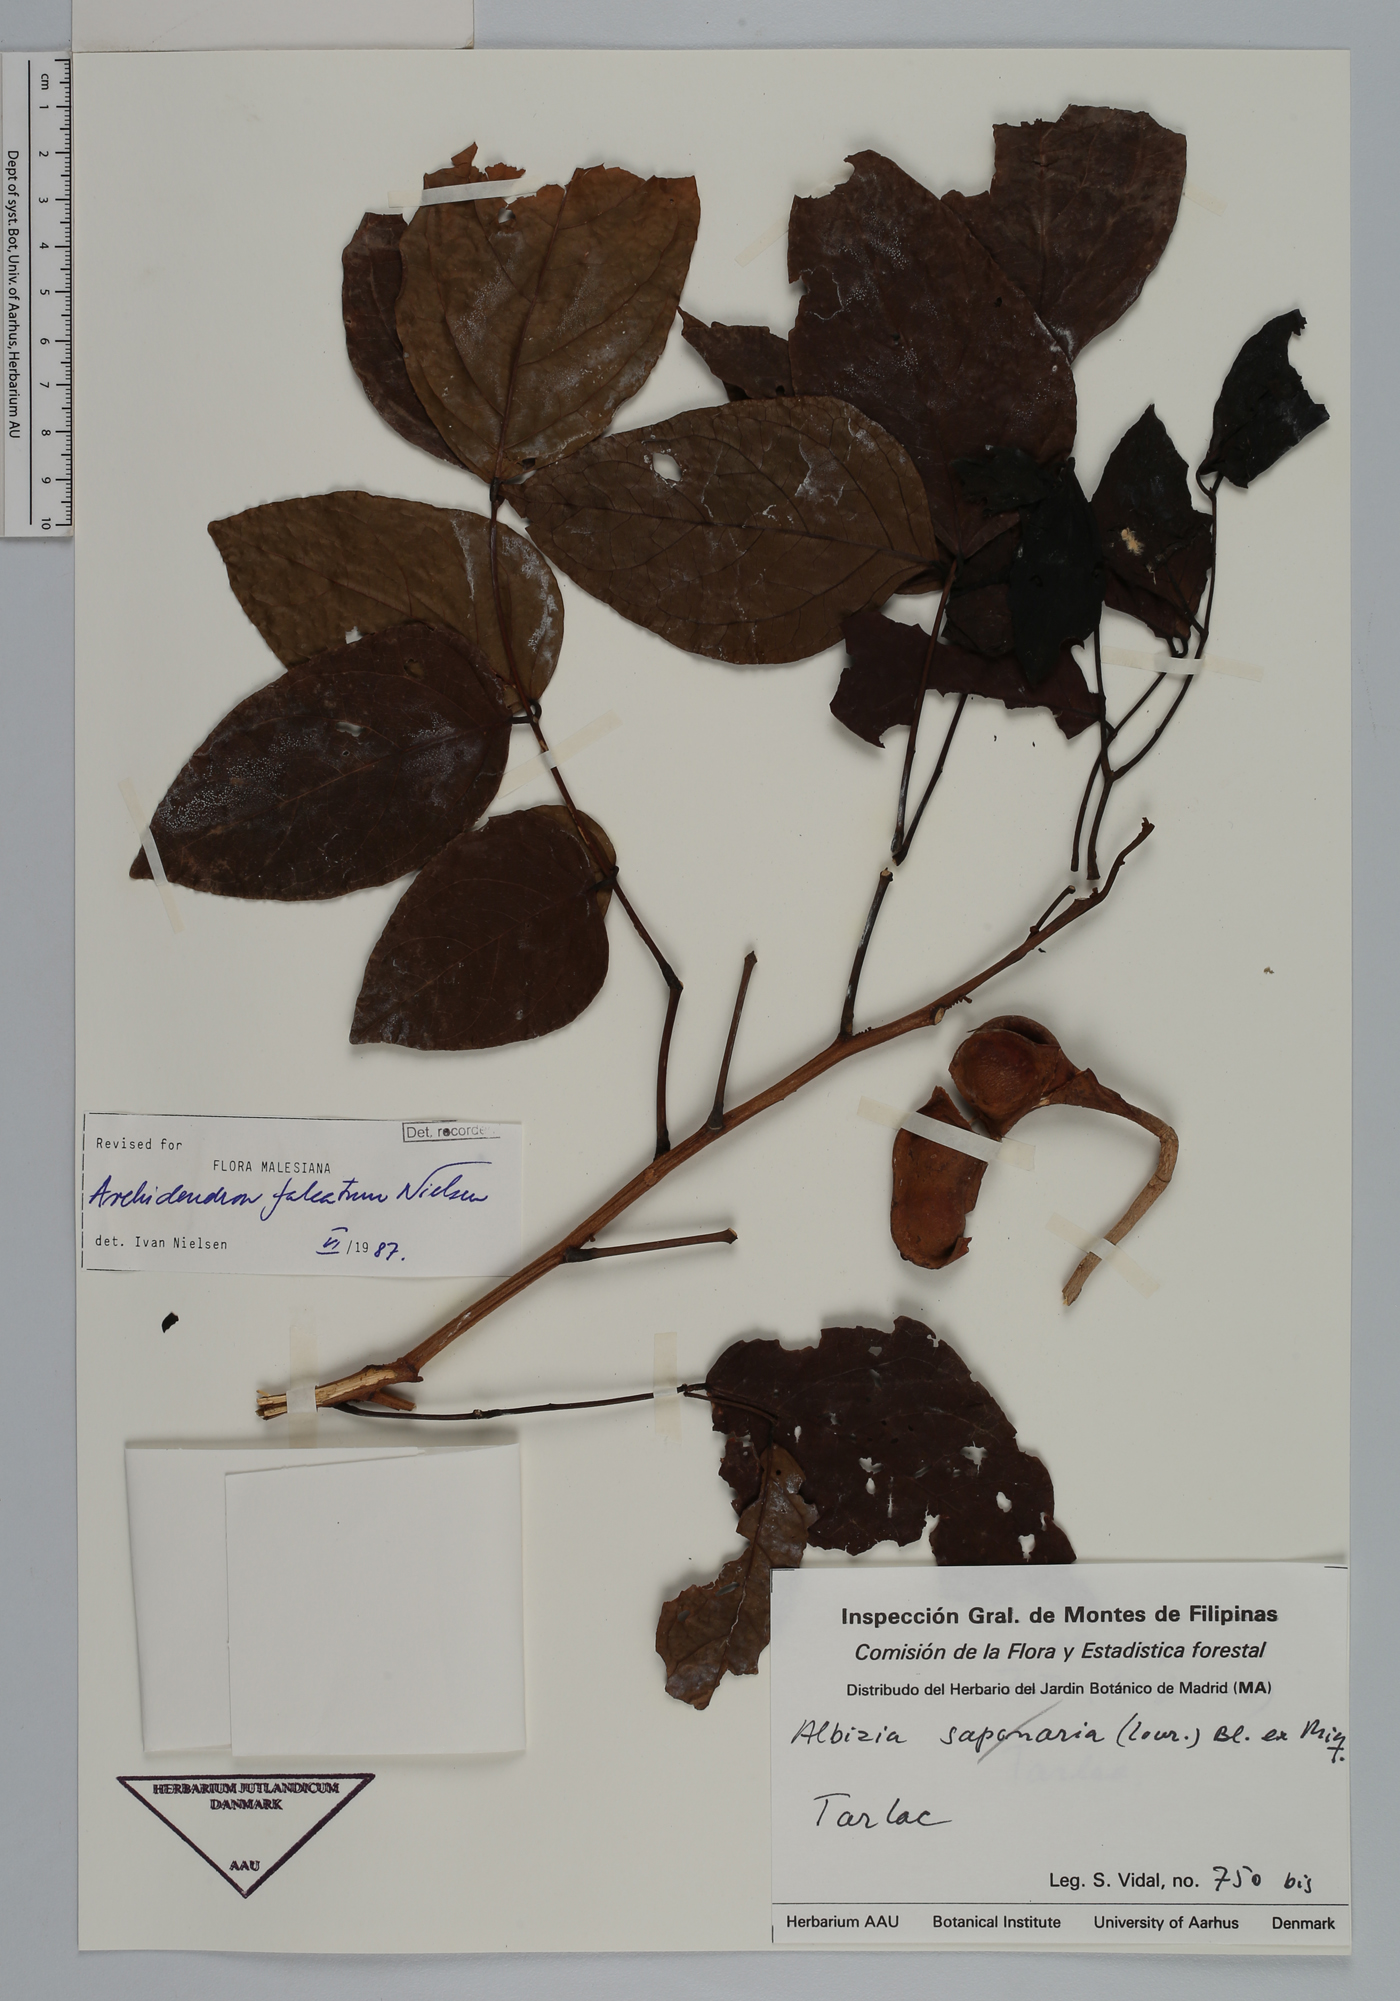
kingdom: Plantae
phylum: Tracheophyta
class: Magnoliopsida
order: Fabales
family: Fabaceae
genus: Archidendron
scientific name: Archidendron falcatum
